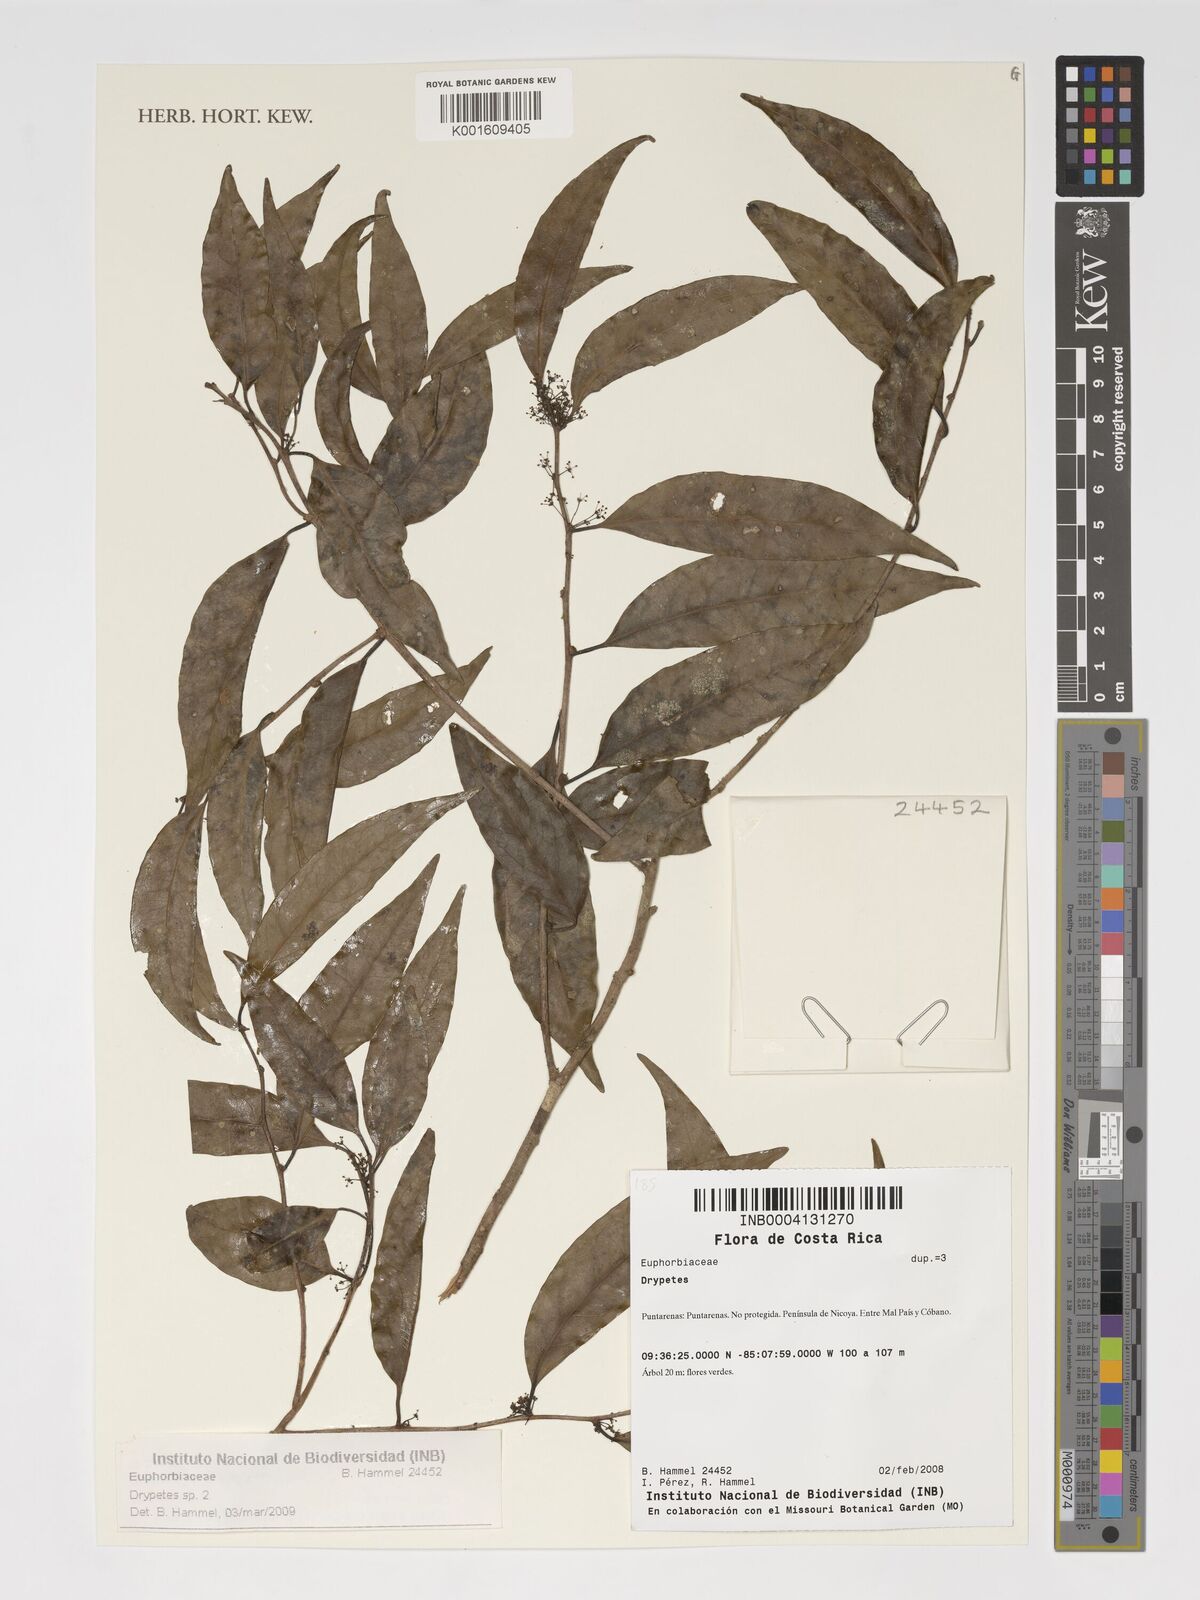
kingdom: Plantae
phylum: Tracheophyta
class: Magnoliopsida
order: Malpighiales
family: Putranjivaceae
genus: Drypetes
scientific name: Drypetes
